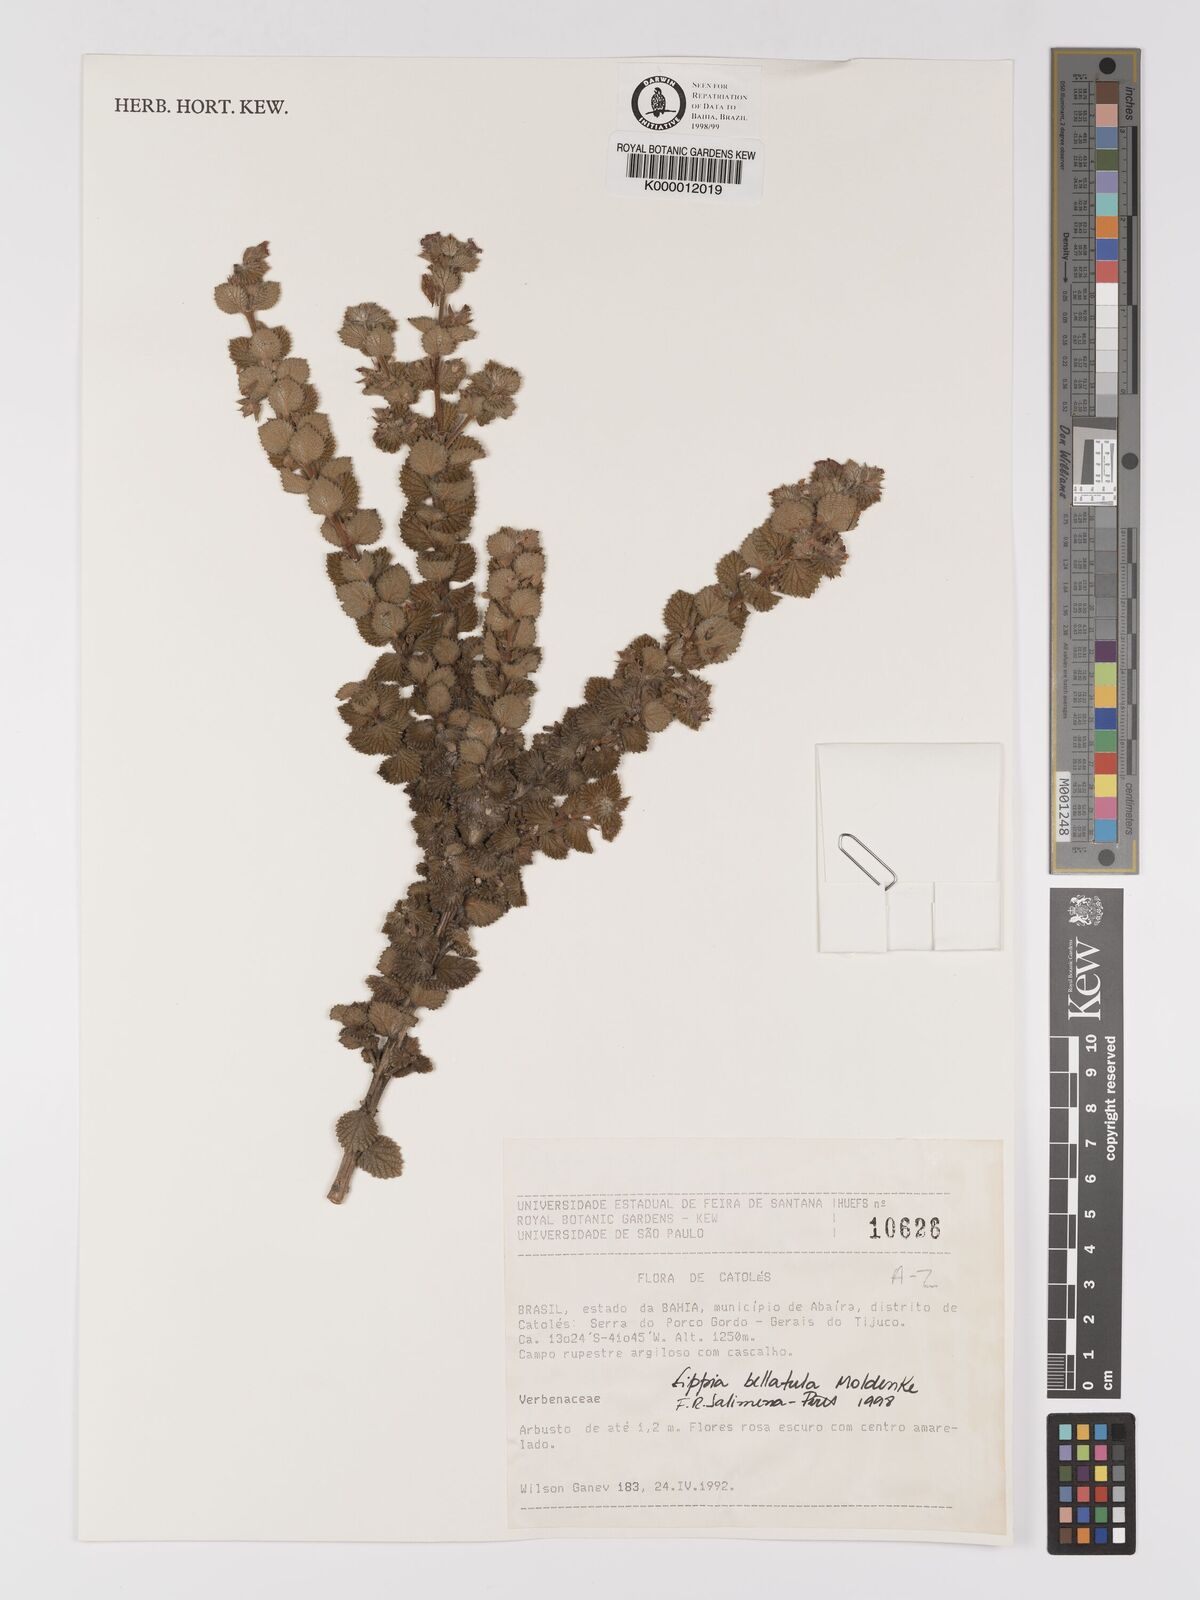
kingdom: Plantae
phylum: Tracheophyta
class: Magnoliopsida
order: Lamiales
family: Verbenaceae
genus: Lippia
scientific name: Lippia bellatula
